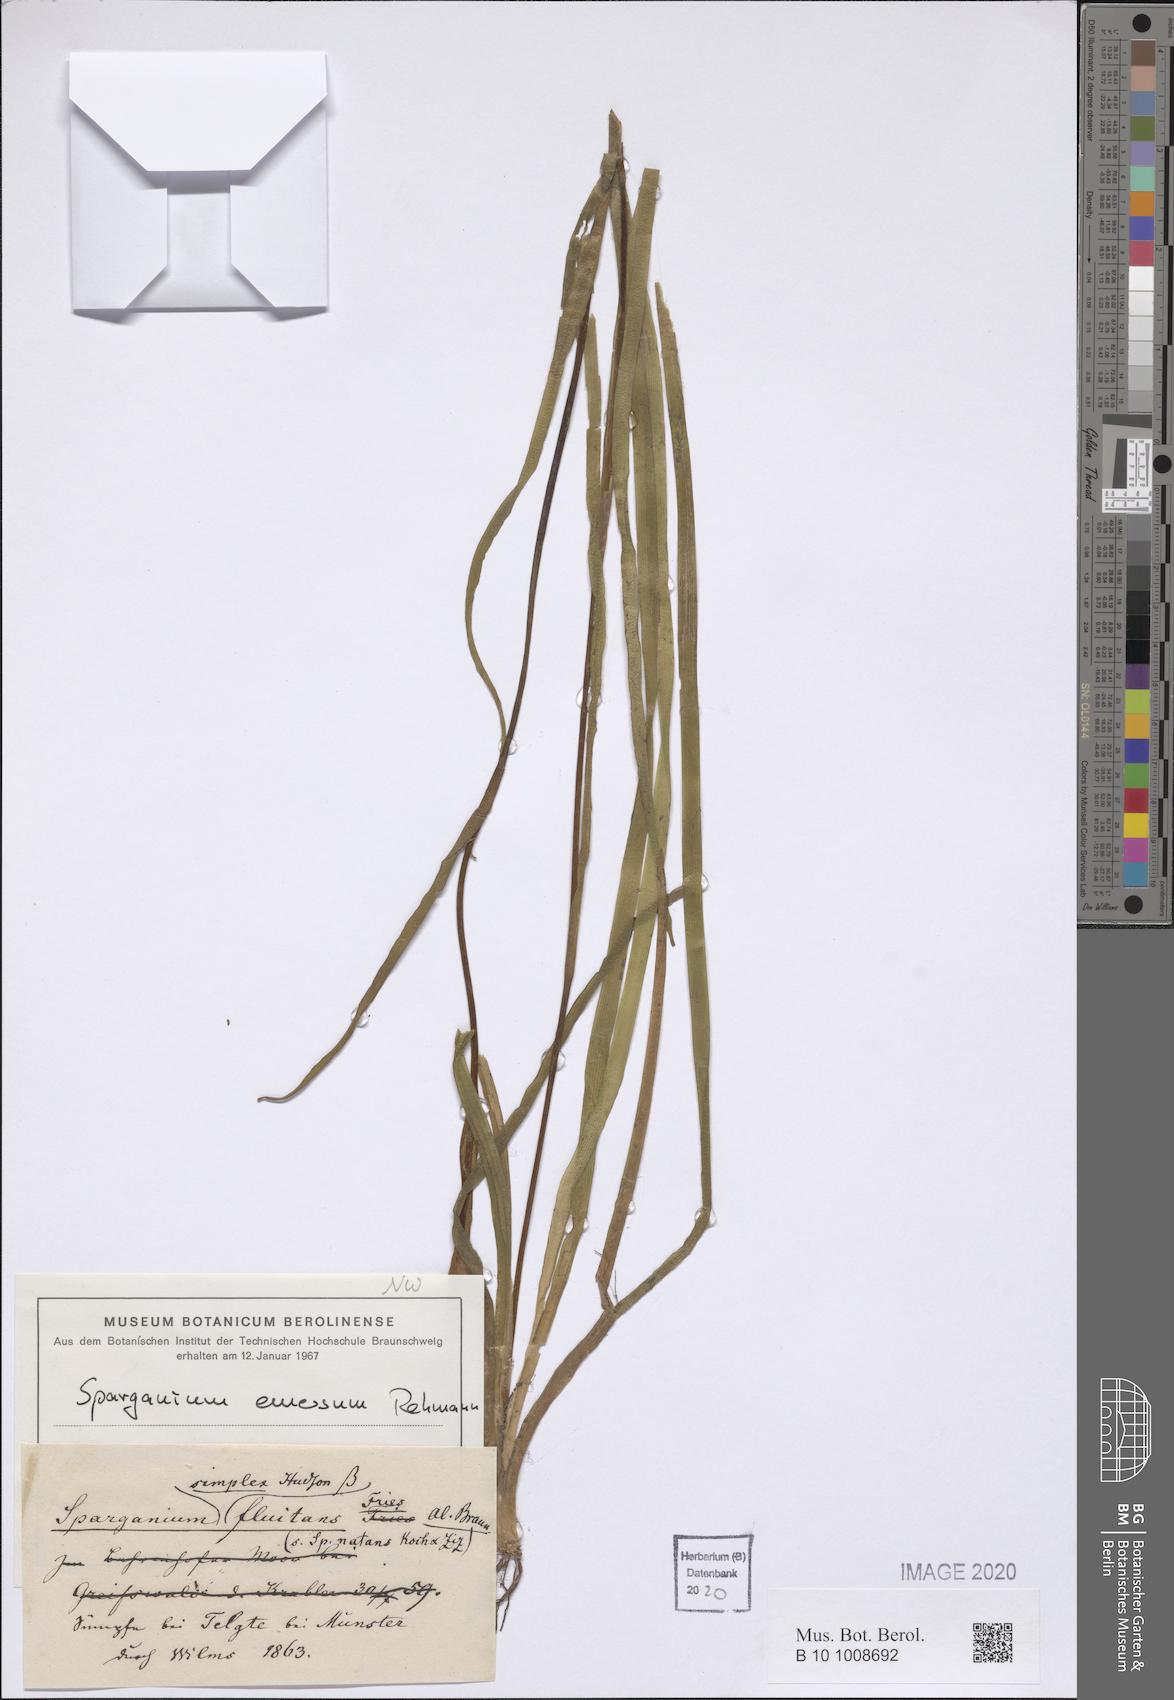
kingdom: Plantae
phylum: Tracheophyta
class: Liliopsida
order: Poales
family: Typhaceae
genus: Sparganium
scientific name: Sparganium emersum
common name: Unbranched bur-reed
